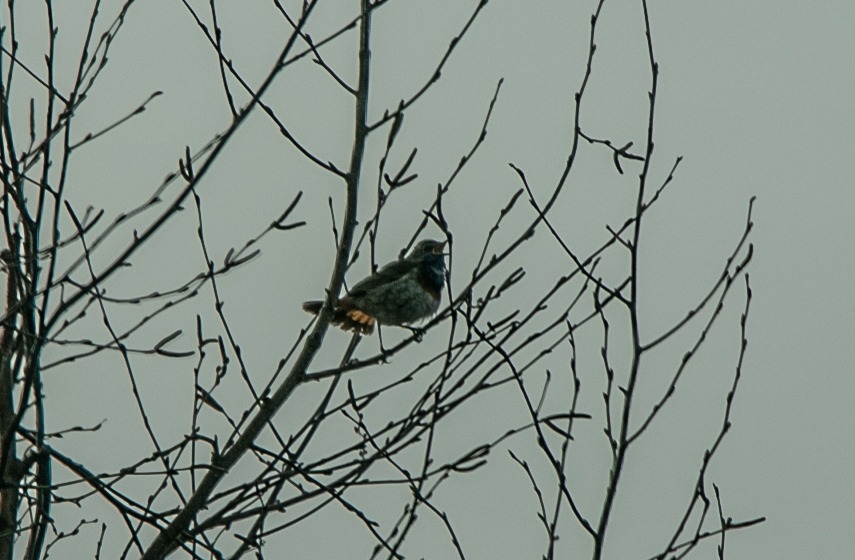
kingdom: Animalia
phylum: Chordata
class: Aves
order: Passeriformes
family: Muscicapidae
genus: Luscinia
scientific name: Luscinia svecica
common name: Blåhals
